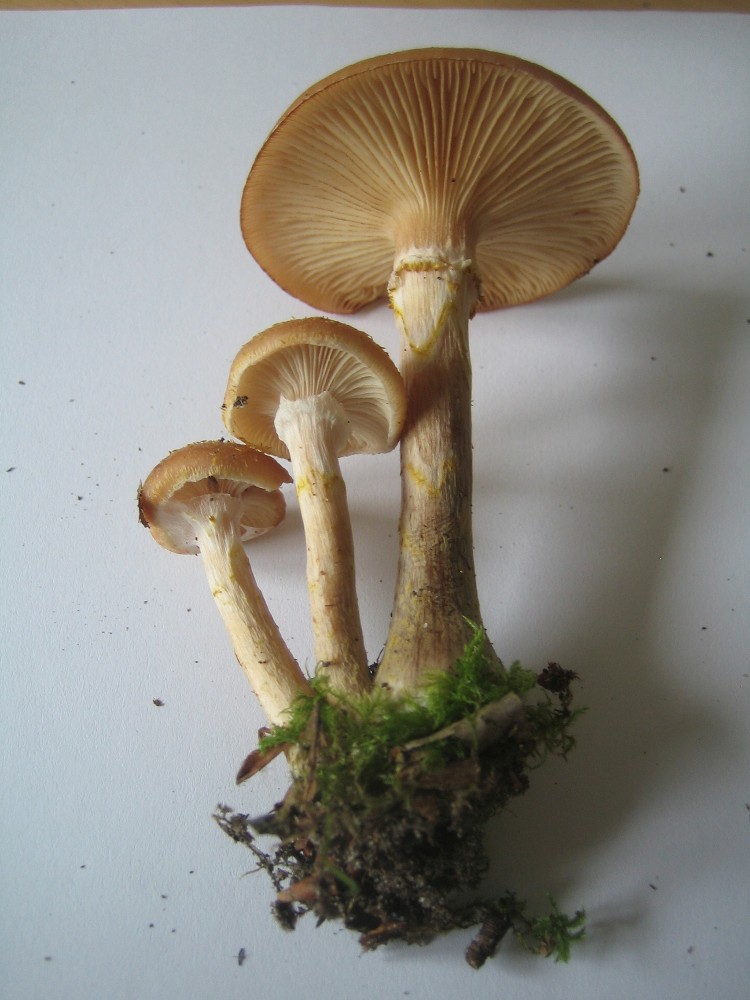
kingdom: Fungi
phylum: Basidiomycota
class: Agaricomycetes
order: Agaricales
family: Physalacriaceae
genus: Armillaria
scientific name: Armillaria lutea
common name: køllestokket honningsvamp
